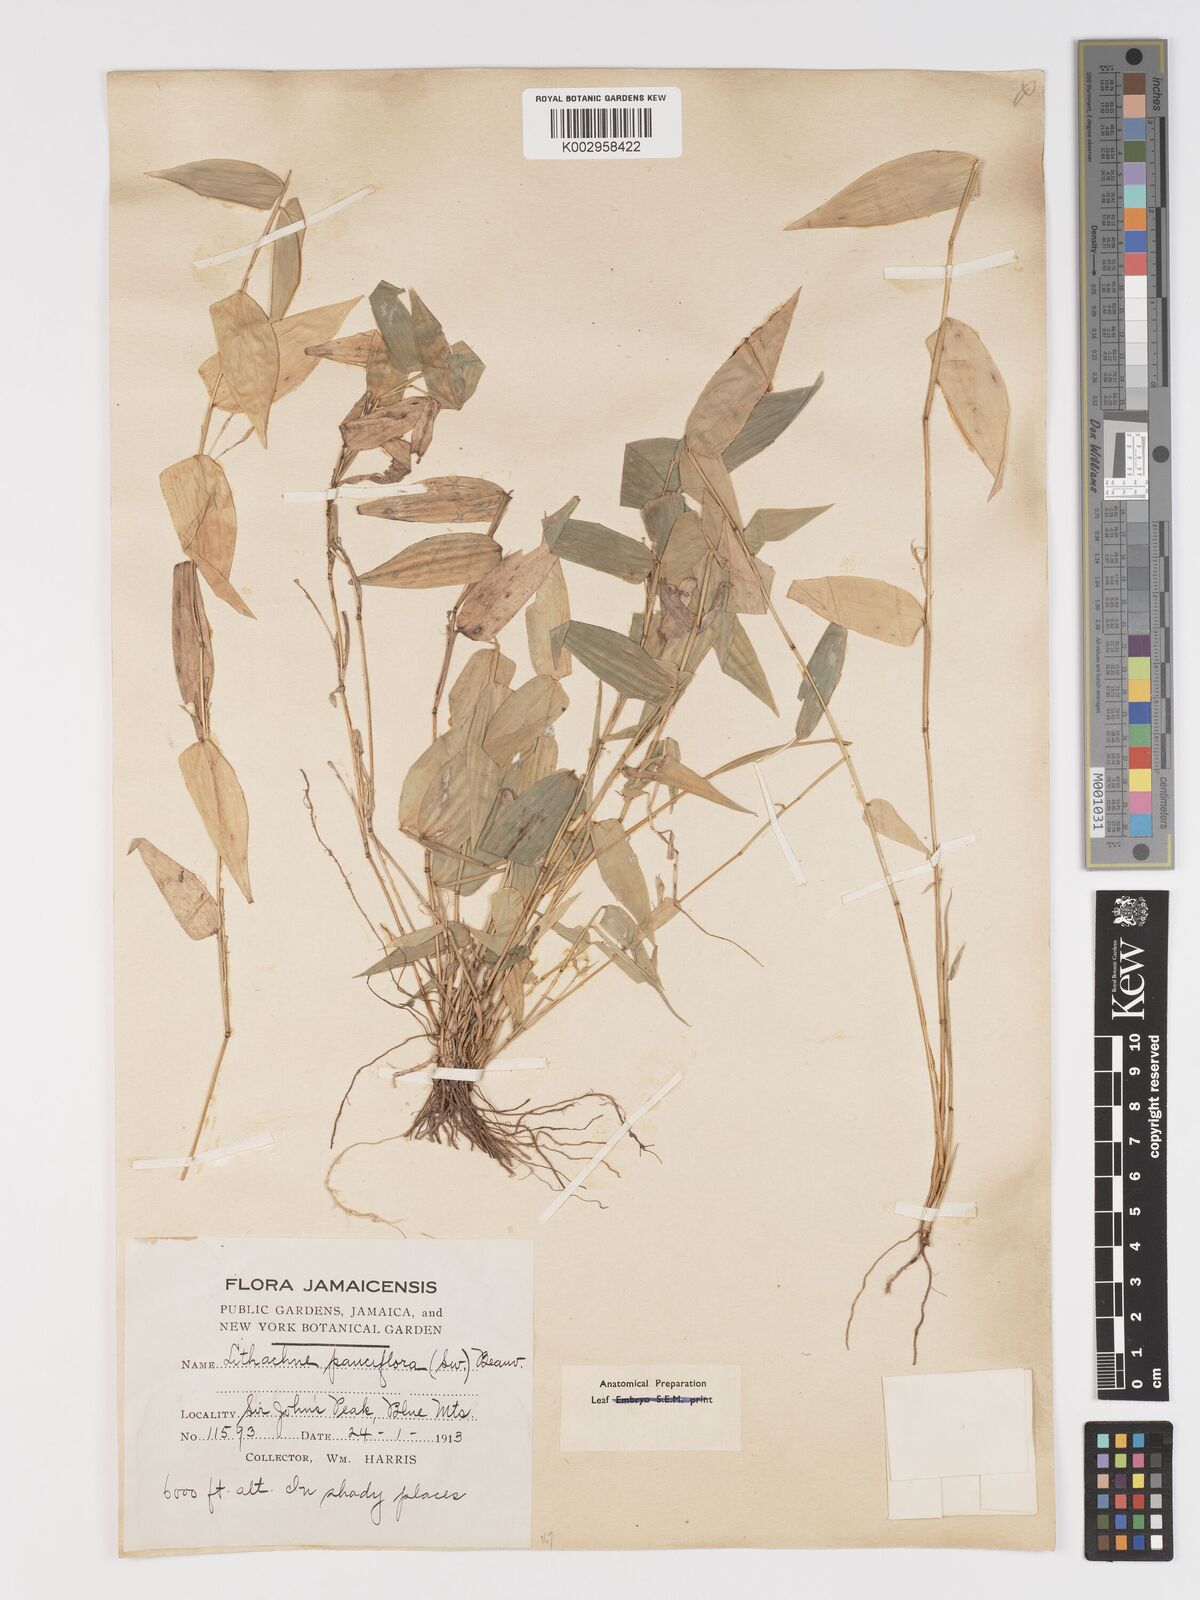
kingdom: Plantae
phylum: Tracheophyta
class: Liliopsida
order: Poales
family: Poaceae
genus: Lithachne
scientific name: Lithachne pauciflora
